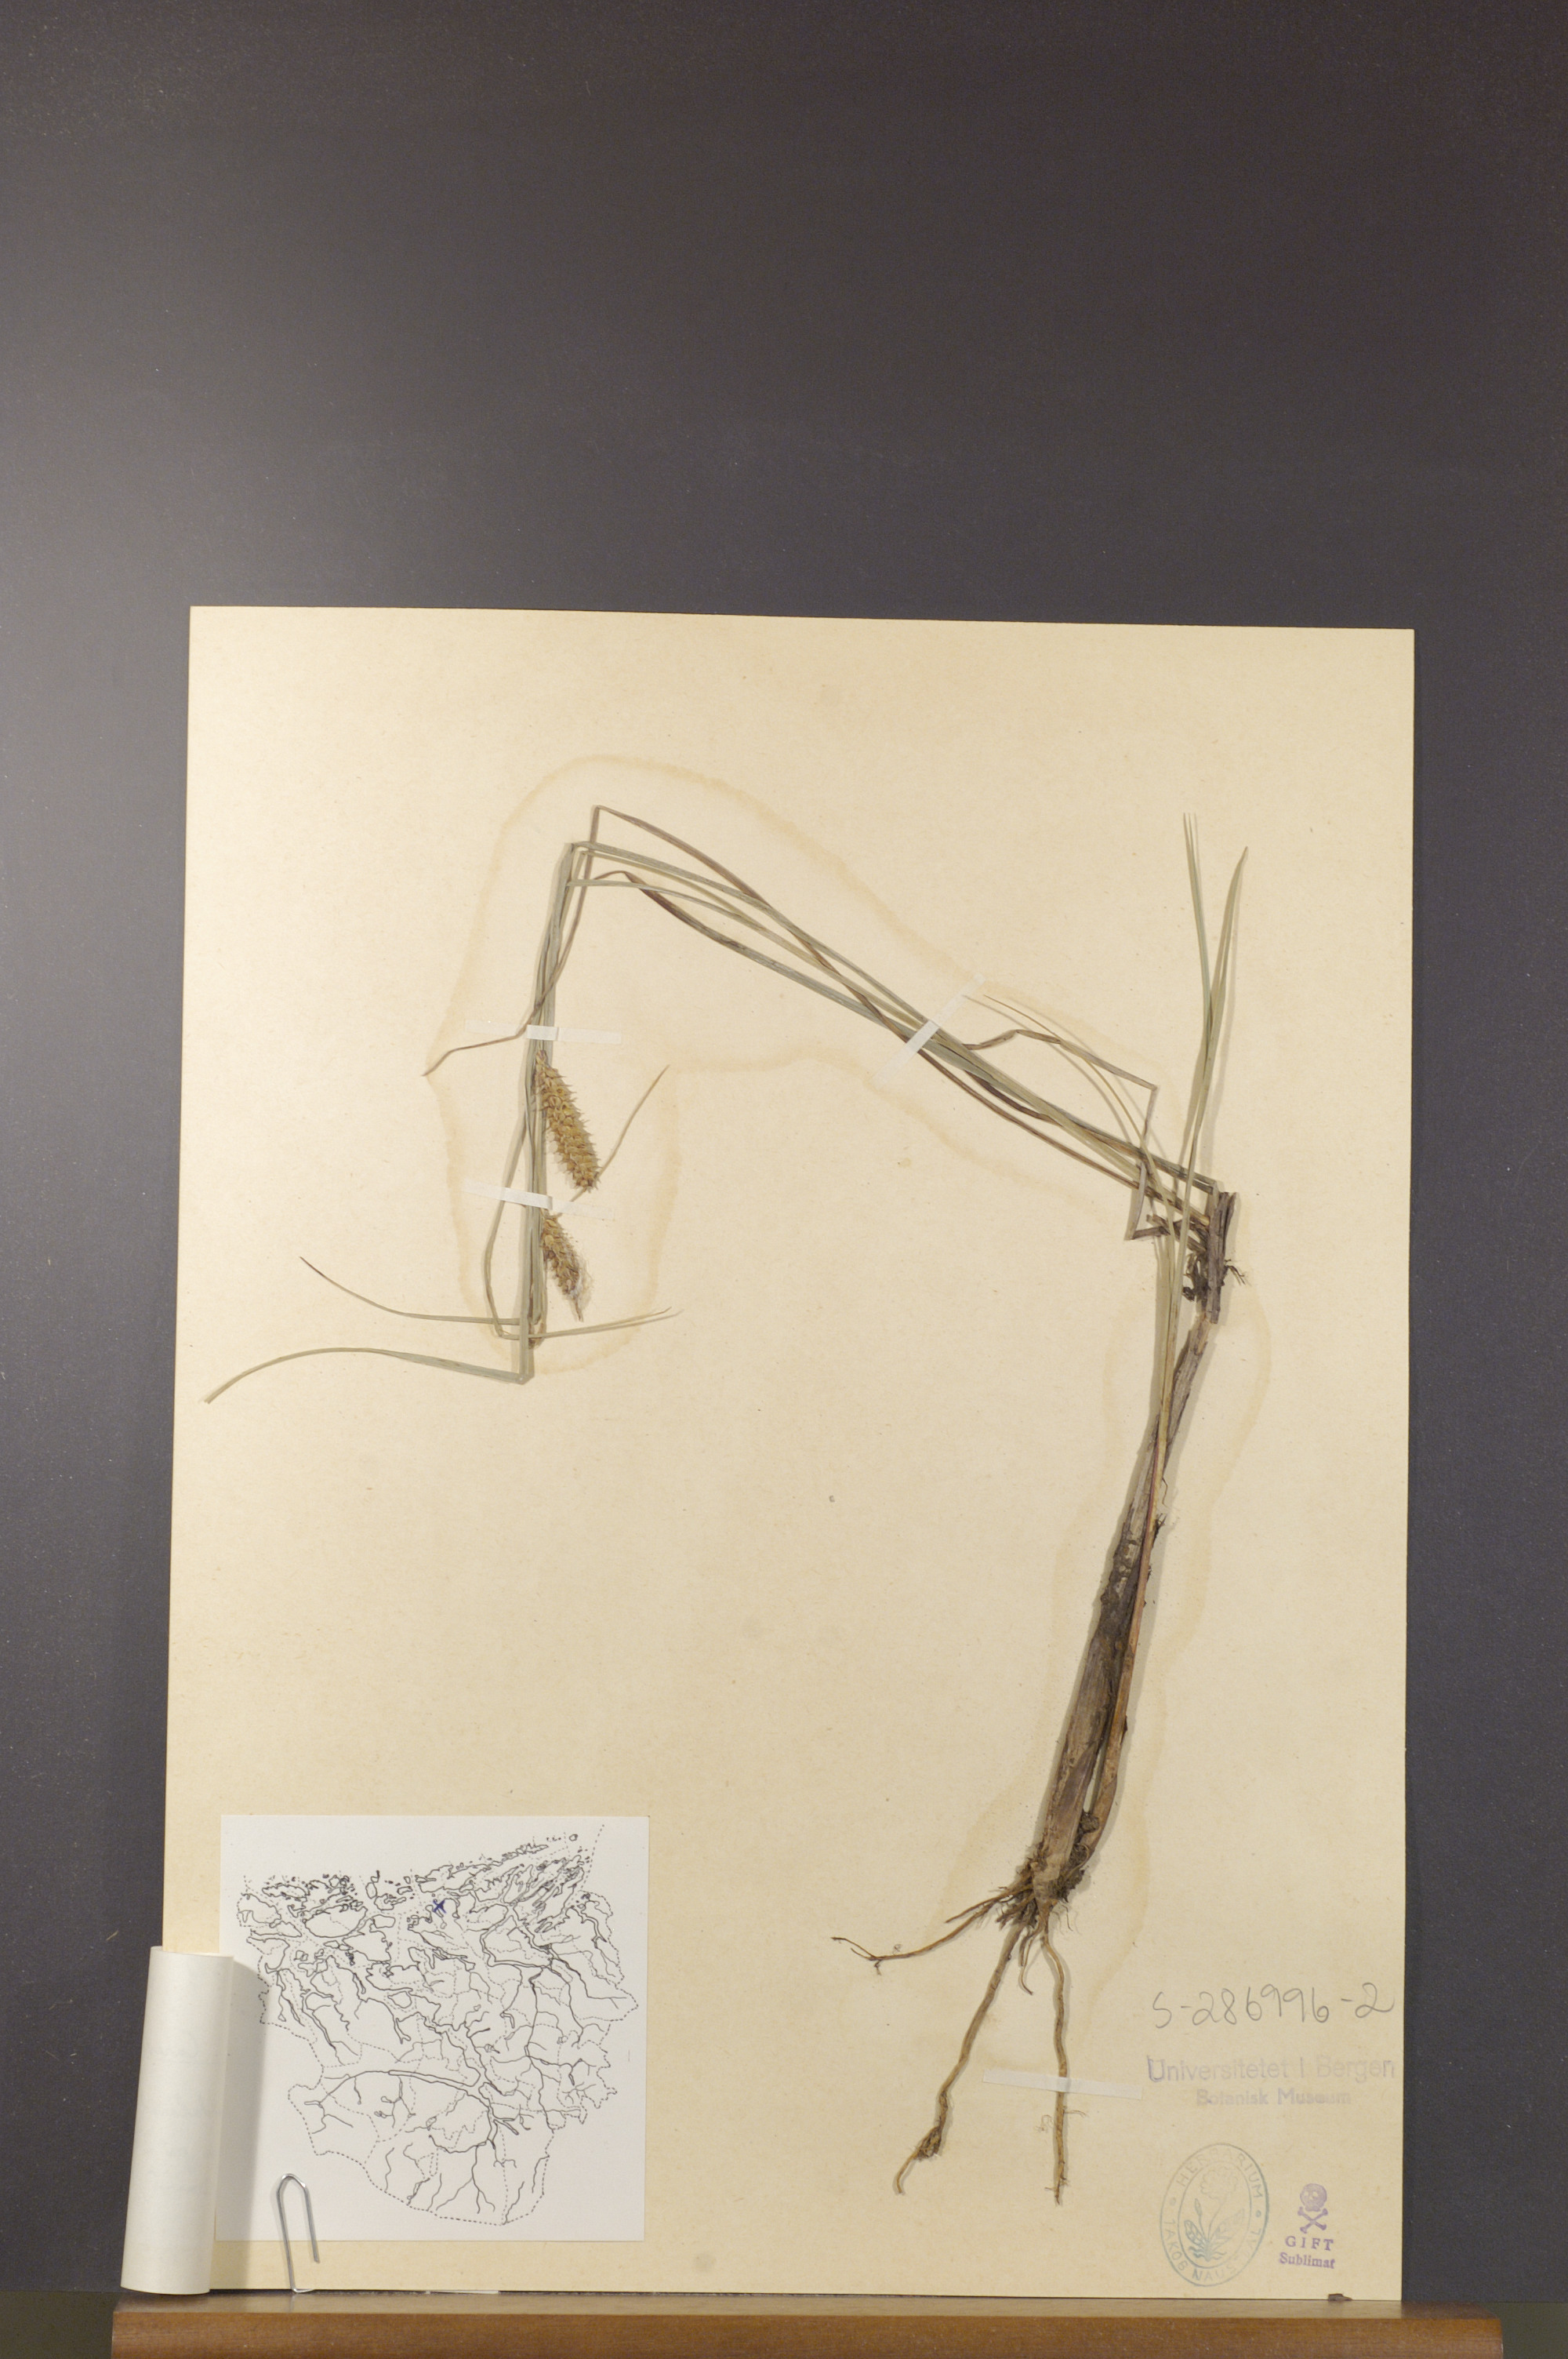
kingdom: Plantae
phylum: Tracheophyta
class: Liliopsida
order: Poales
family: Cyperaceae
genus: Carex
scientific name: Carex rostrata
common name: Bottle sedge
